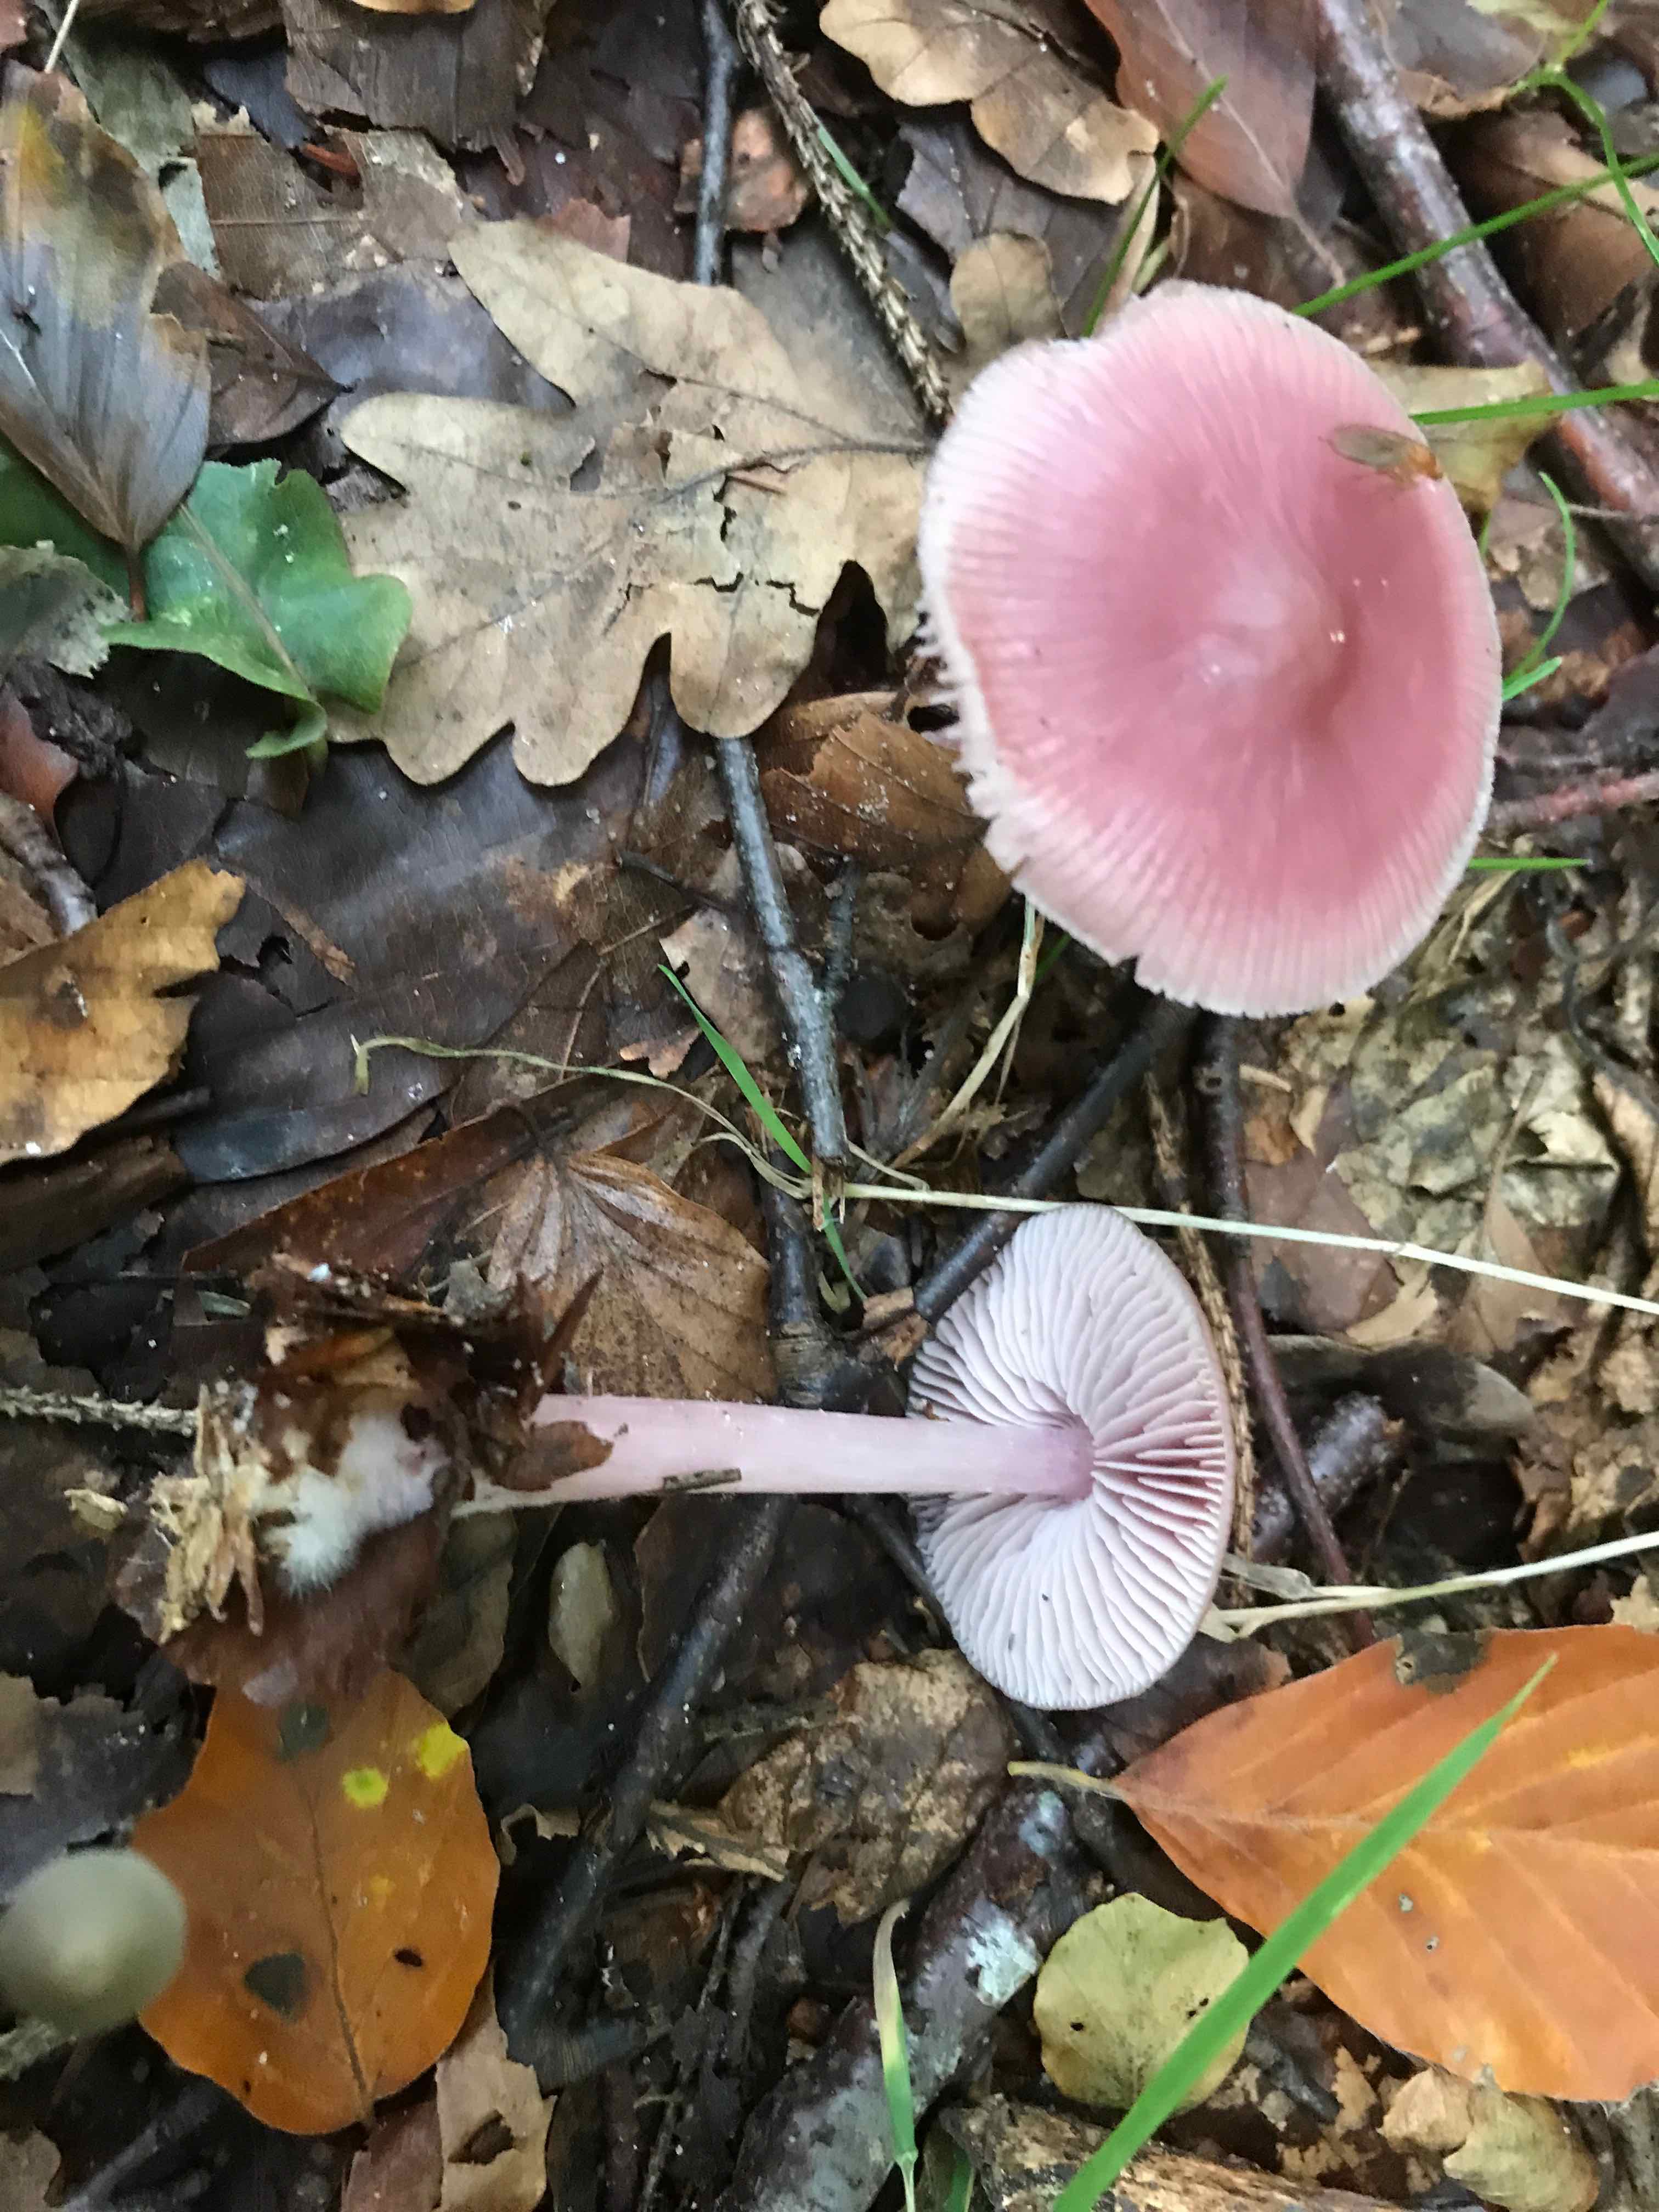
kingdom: Fungi
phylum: Basidiomycota
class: Agaricomycetes
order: Agaricales
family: Mycenaceae
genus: Mycena
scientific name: Mycena rosea
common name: rosa huesvamp
